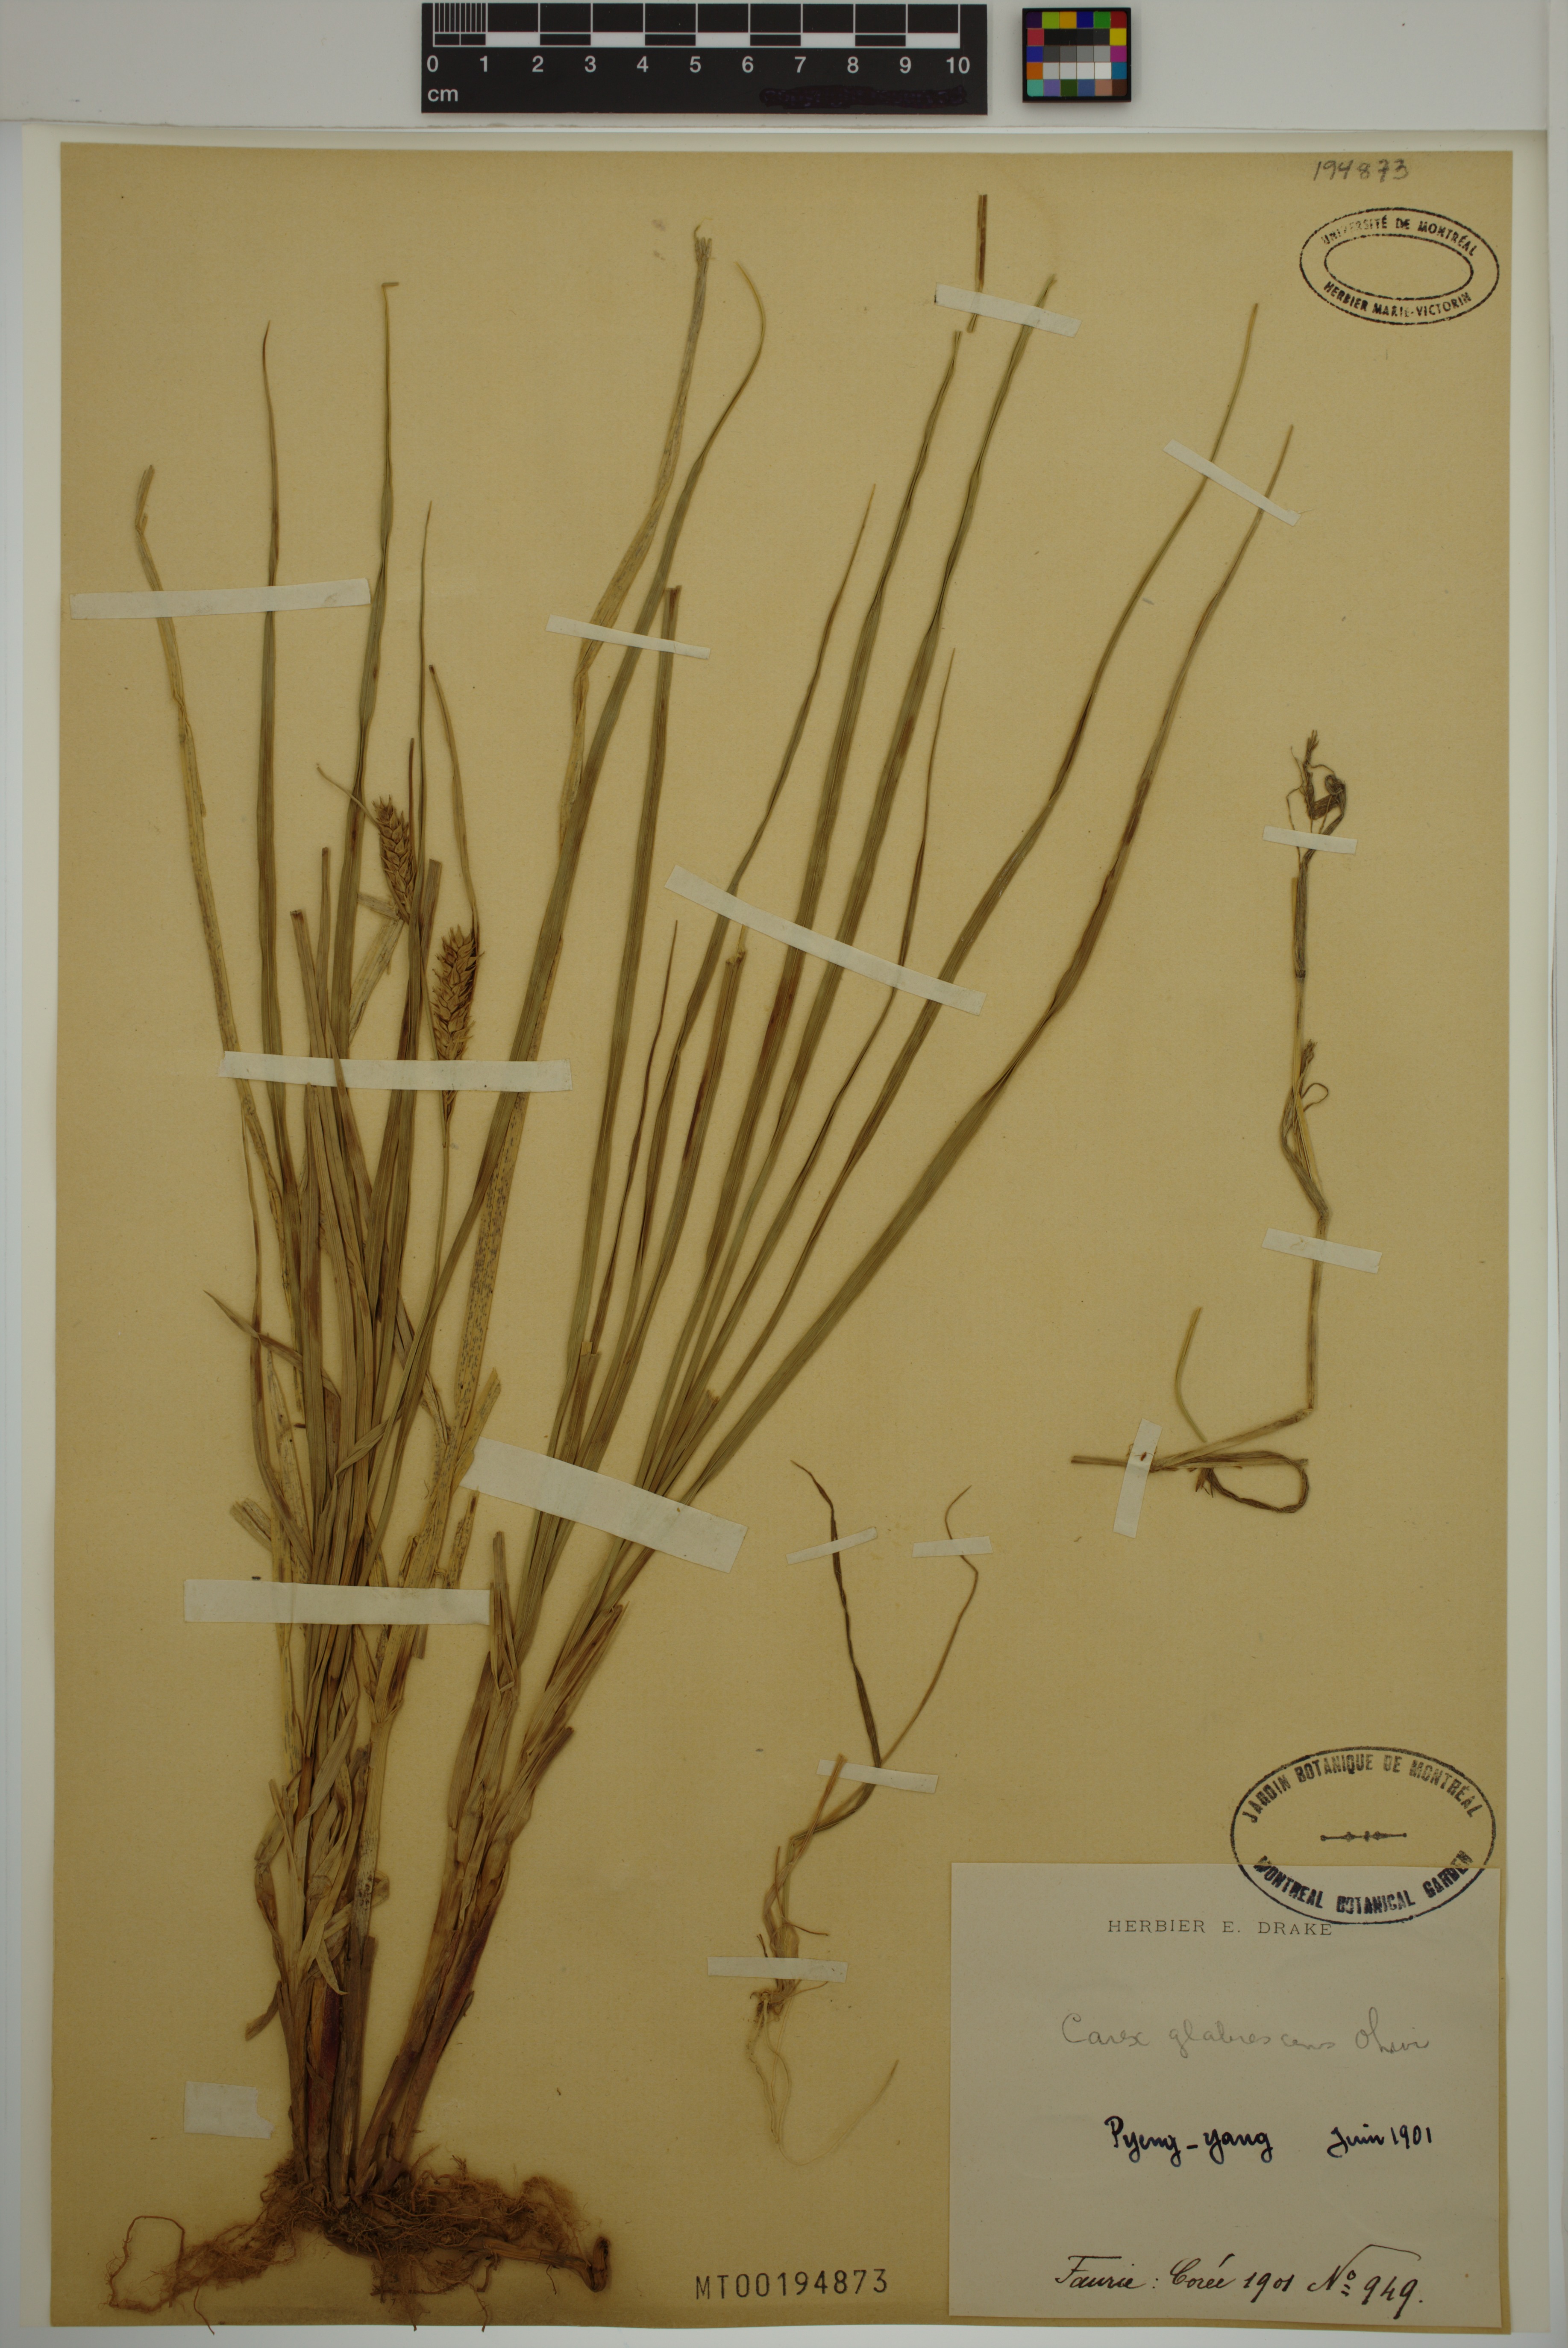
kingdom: Plantae
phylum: Tracheophyta
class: Liliopsida
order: Poales
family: Cyperaceae
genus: Carex
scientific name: Carex glabrescens
